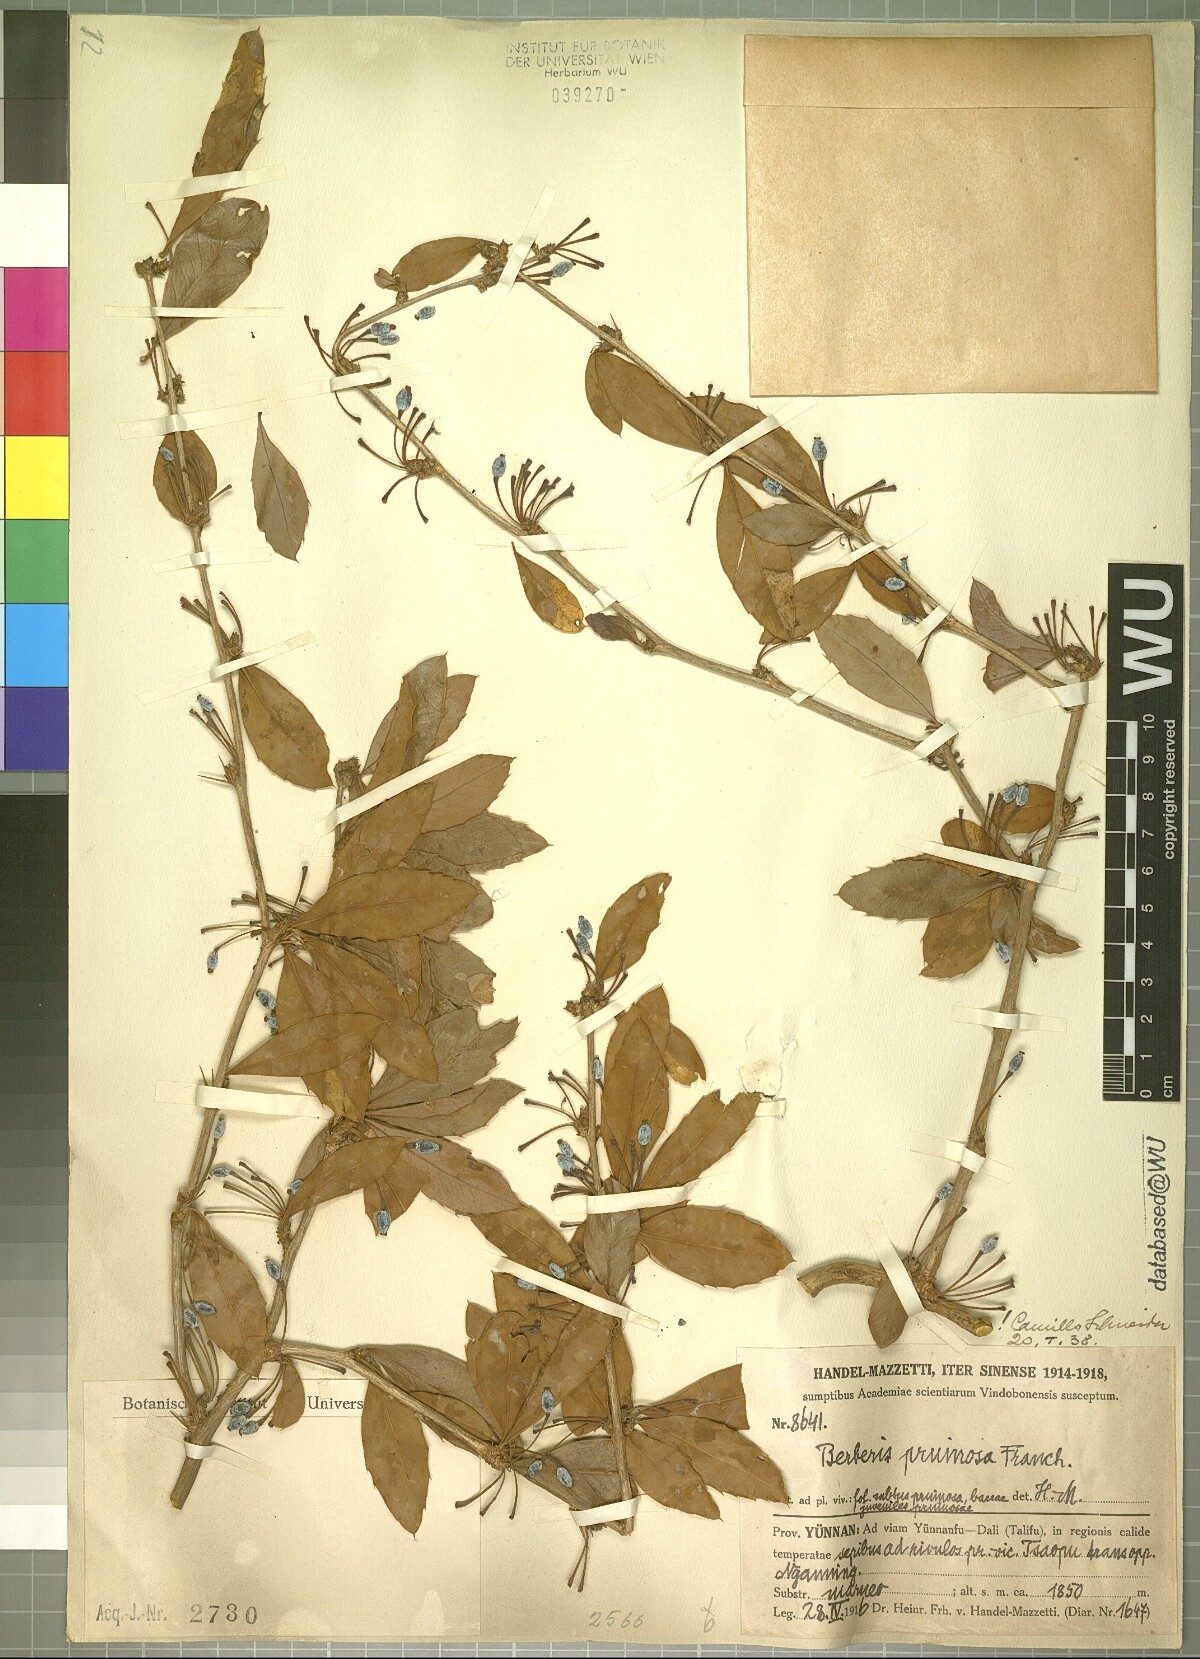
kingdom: Plantae
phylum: Tracheophyta
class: Magnoliopsida
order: Ranunculales
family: Berberidaceae
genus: Berberis
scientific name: Berberis pruinosa
